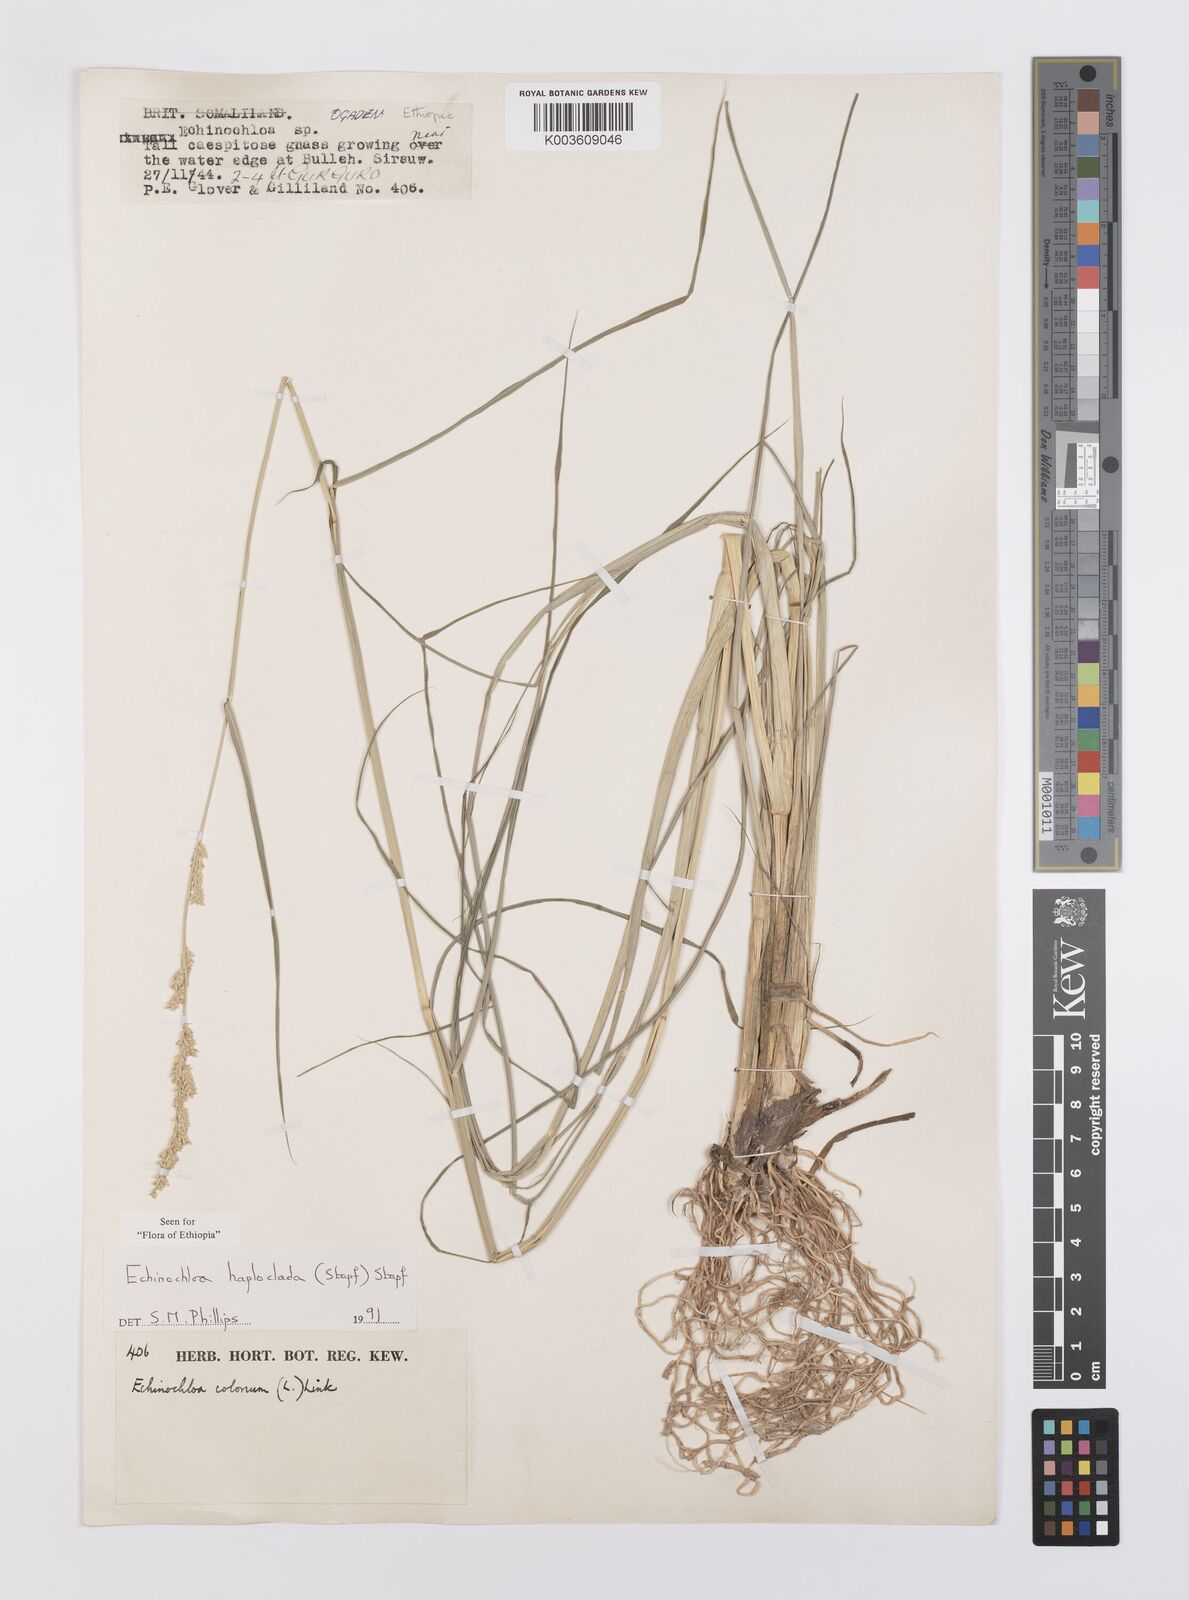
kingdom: Plantae
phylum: Tracheophyta
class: Liliopsida
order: Poales
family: Poaceae
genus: Echinochloa
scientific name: Echinochloa haploclada
